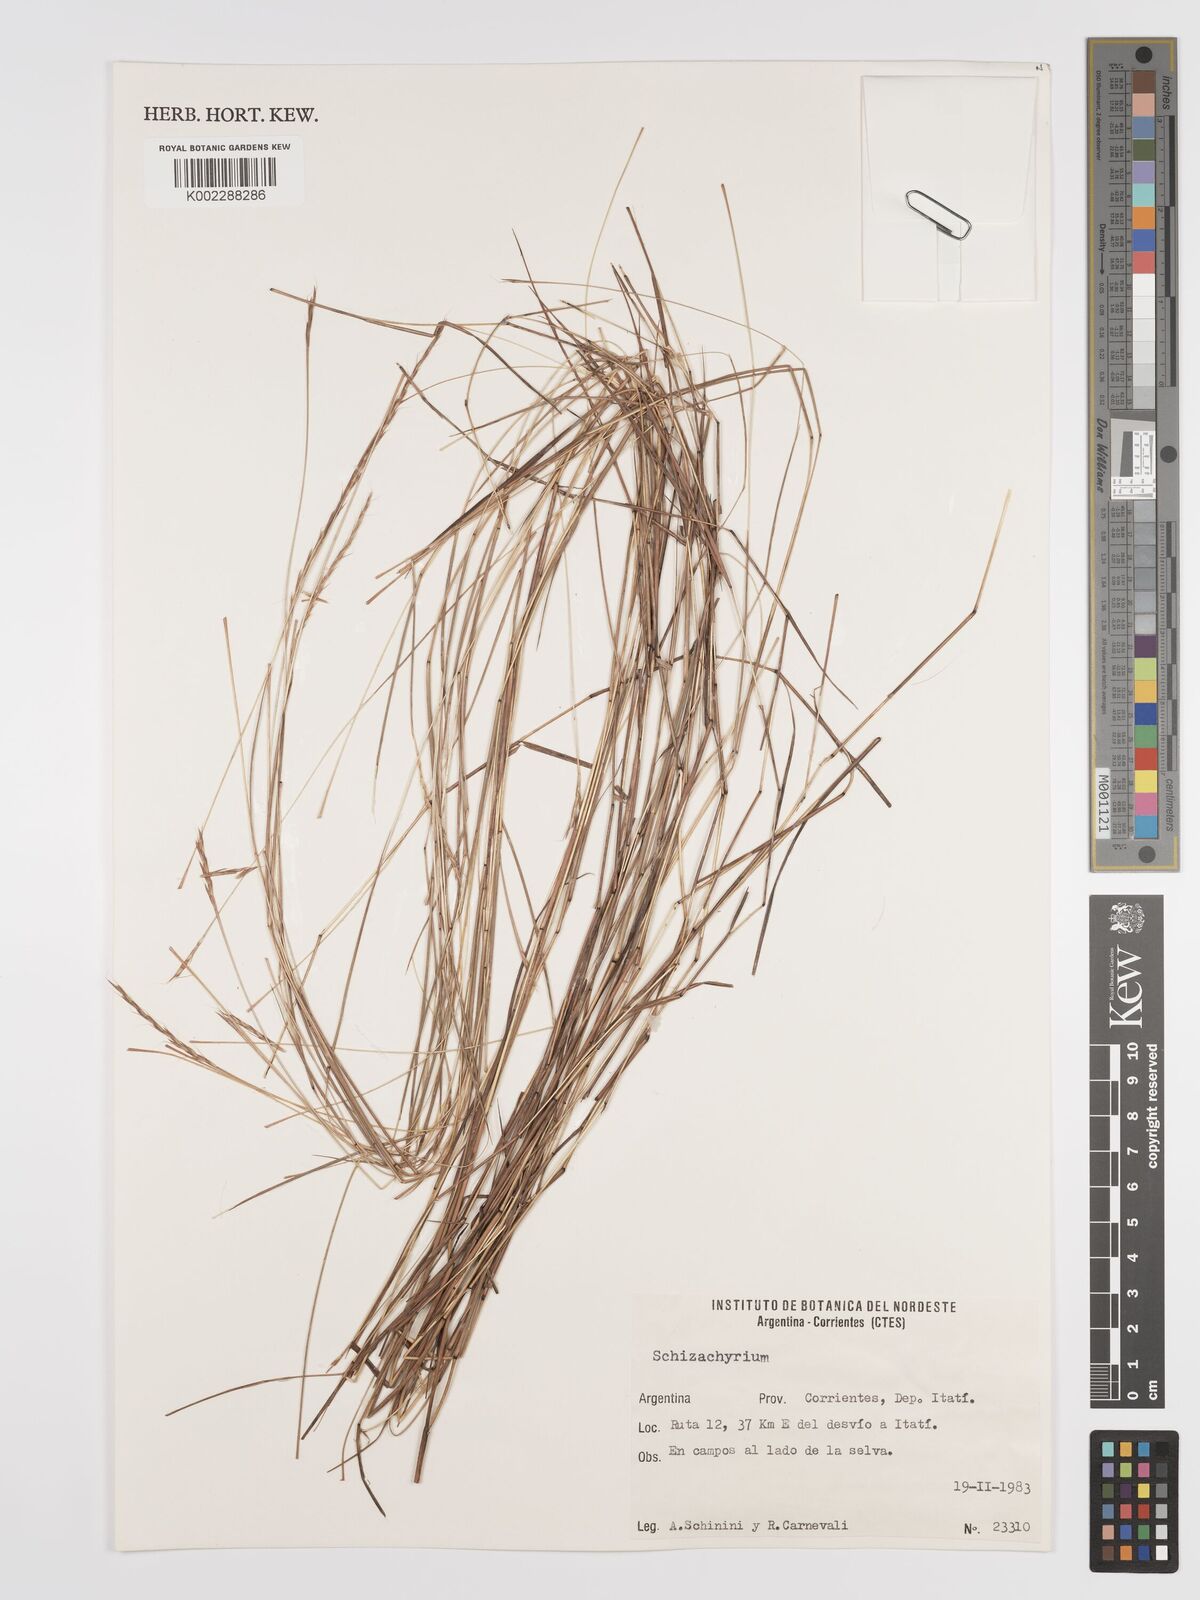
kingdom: Plantae
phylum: Tracheophyta
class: Liliopsida
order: Poales
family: Poaceae
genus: Schizachyrium
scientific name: Schizachyrium
